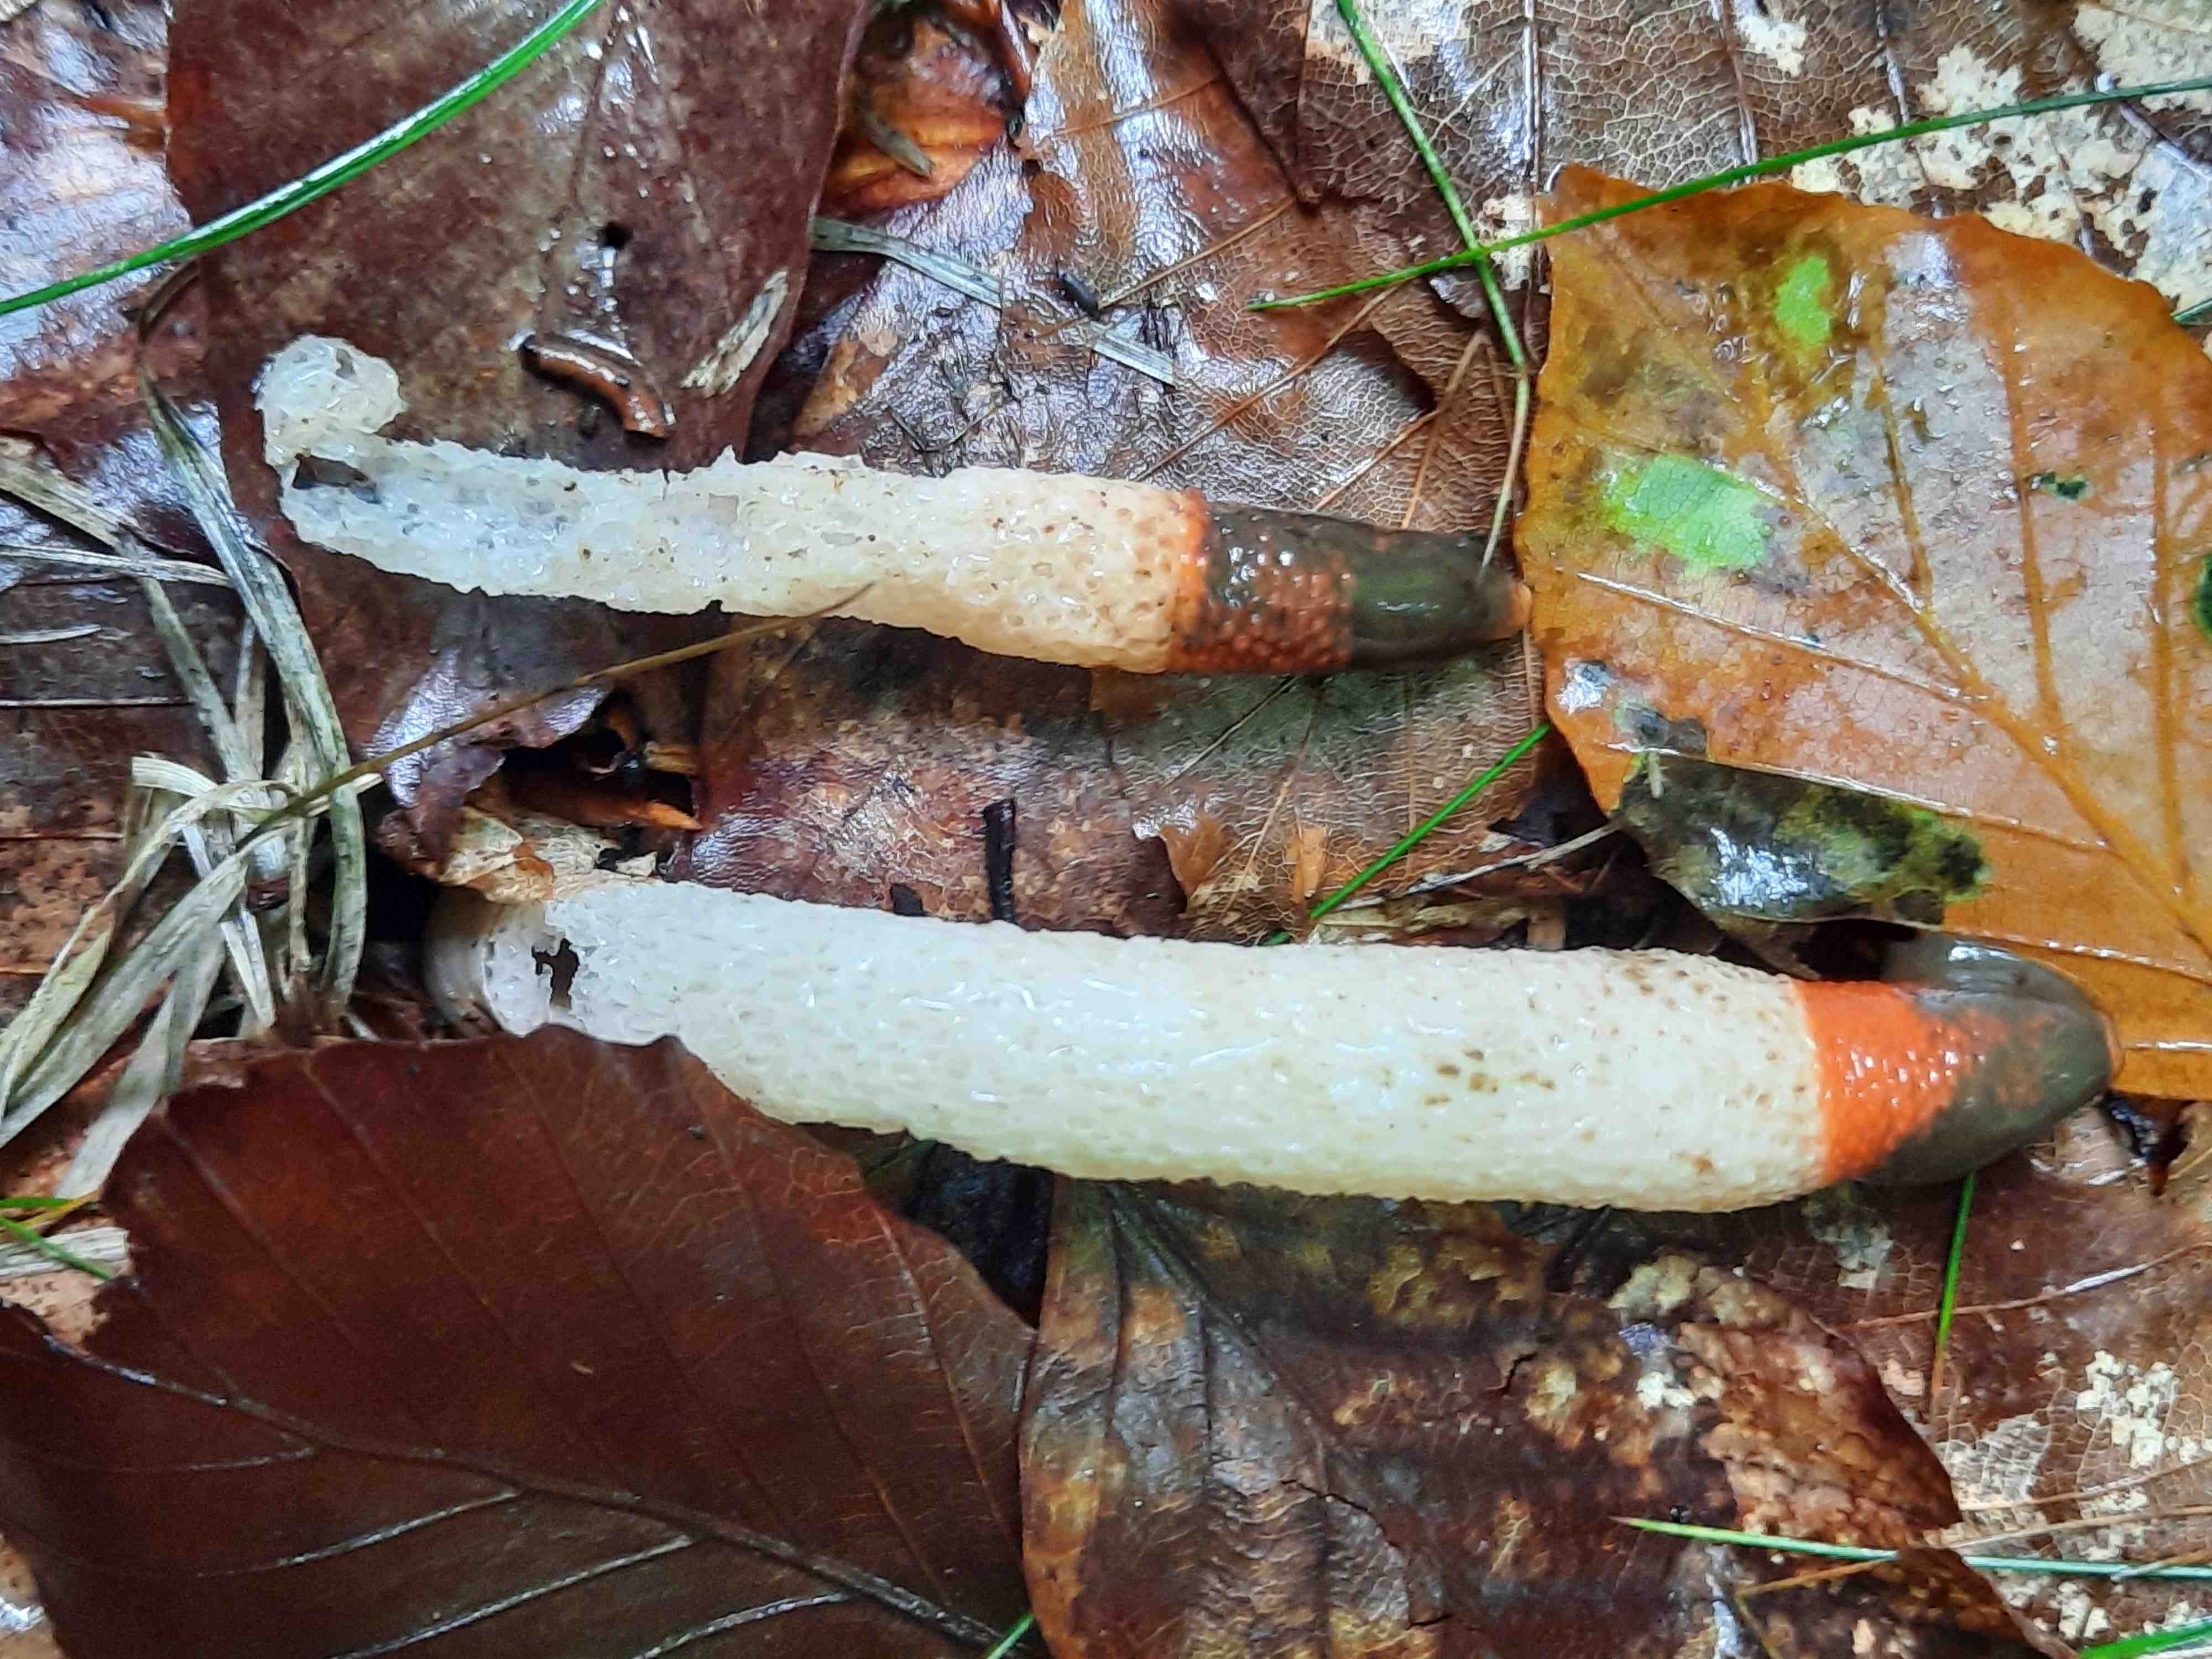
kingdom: Fungi
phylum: Basidiomycota
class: Agaricomycetes
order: Phallales
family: Phallaceae
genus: Mutinus
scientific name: Mutinus caninus
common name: hunde-stinksvamp
